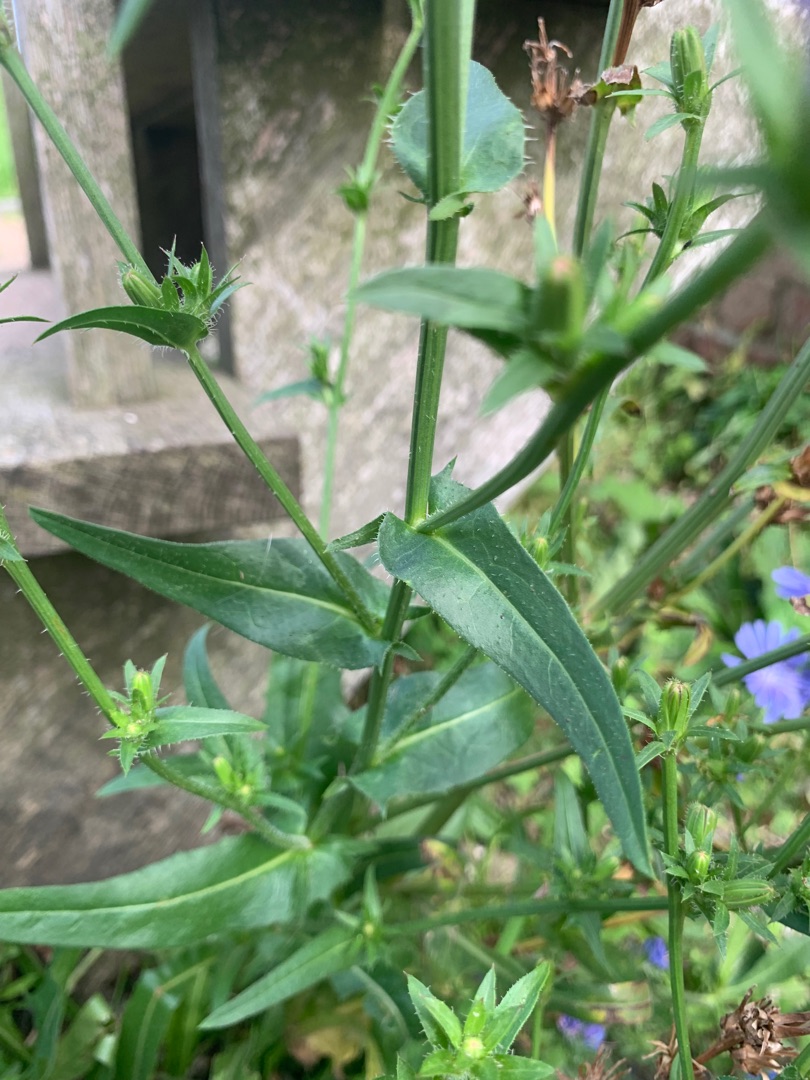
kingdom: Plantae
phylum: Tracheophyta
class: Magnoliopsida
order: Asterales
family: Asteraceae
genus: Cichorium
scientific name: Cichorium intybus
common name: Cikorie
